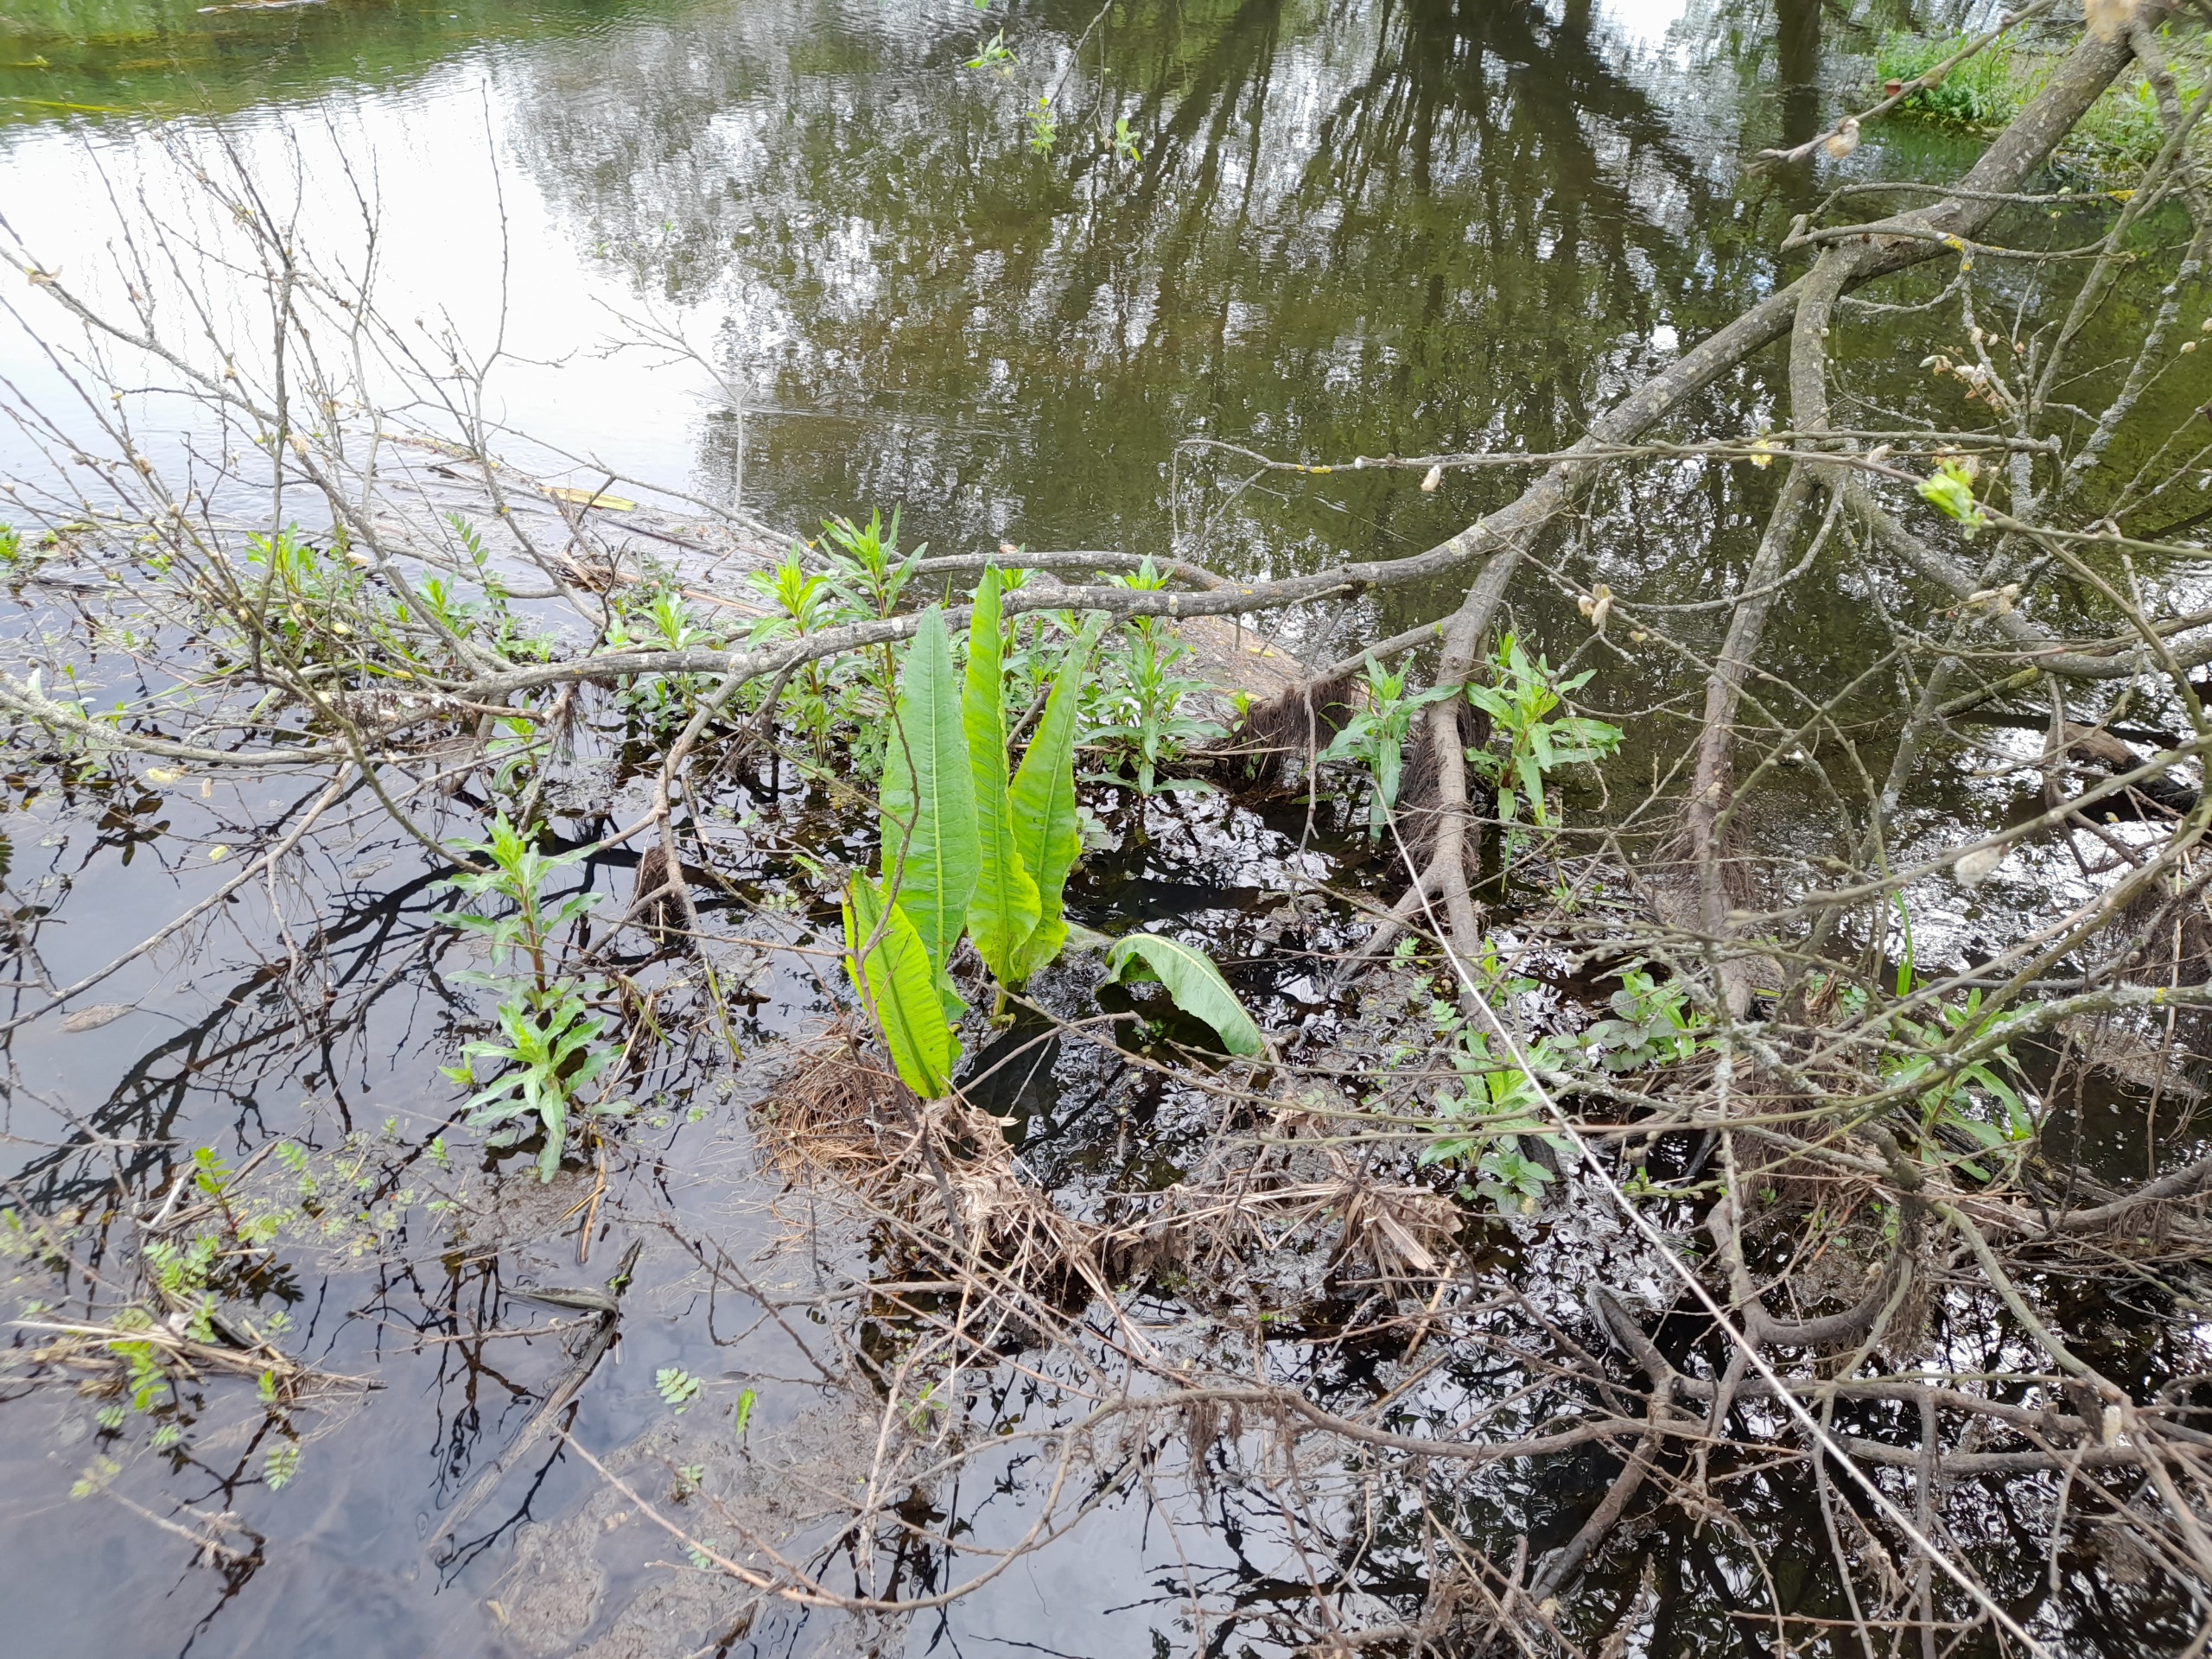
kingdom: Plantae
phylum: Tracheophyta
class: Magnoliopsida
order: Caryophyllales
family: Polygonaceae
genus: Rumex
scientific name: Rumex hydrolapathum
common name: Vand-skræppe
